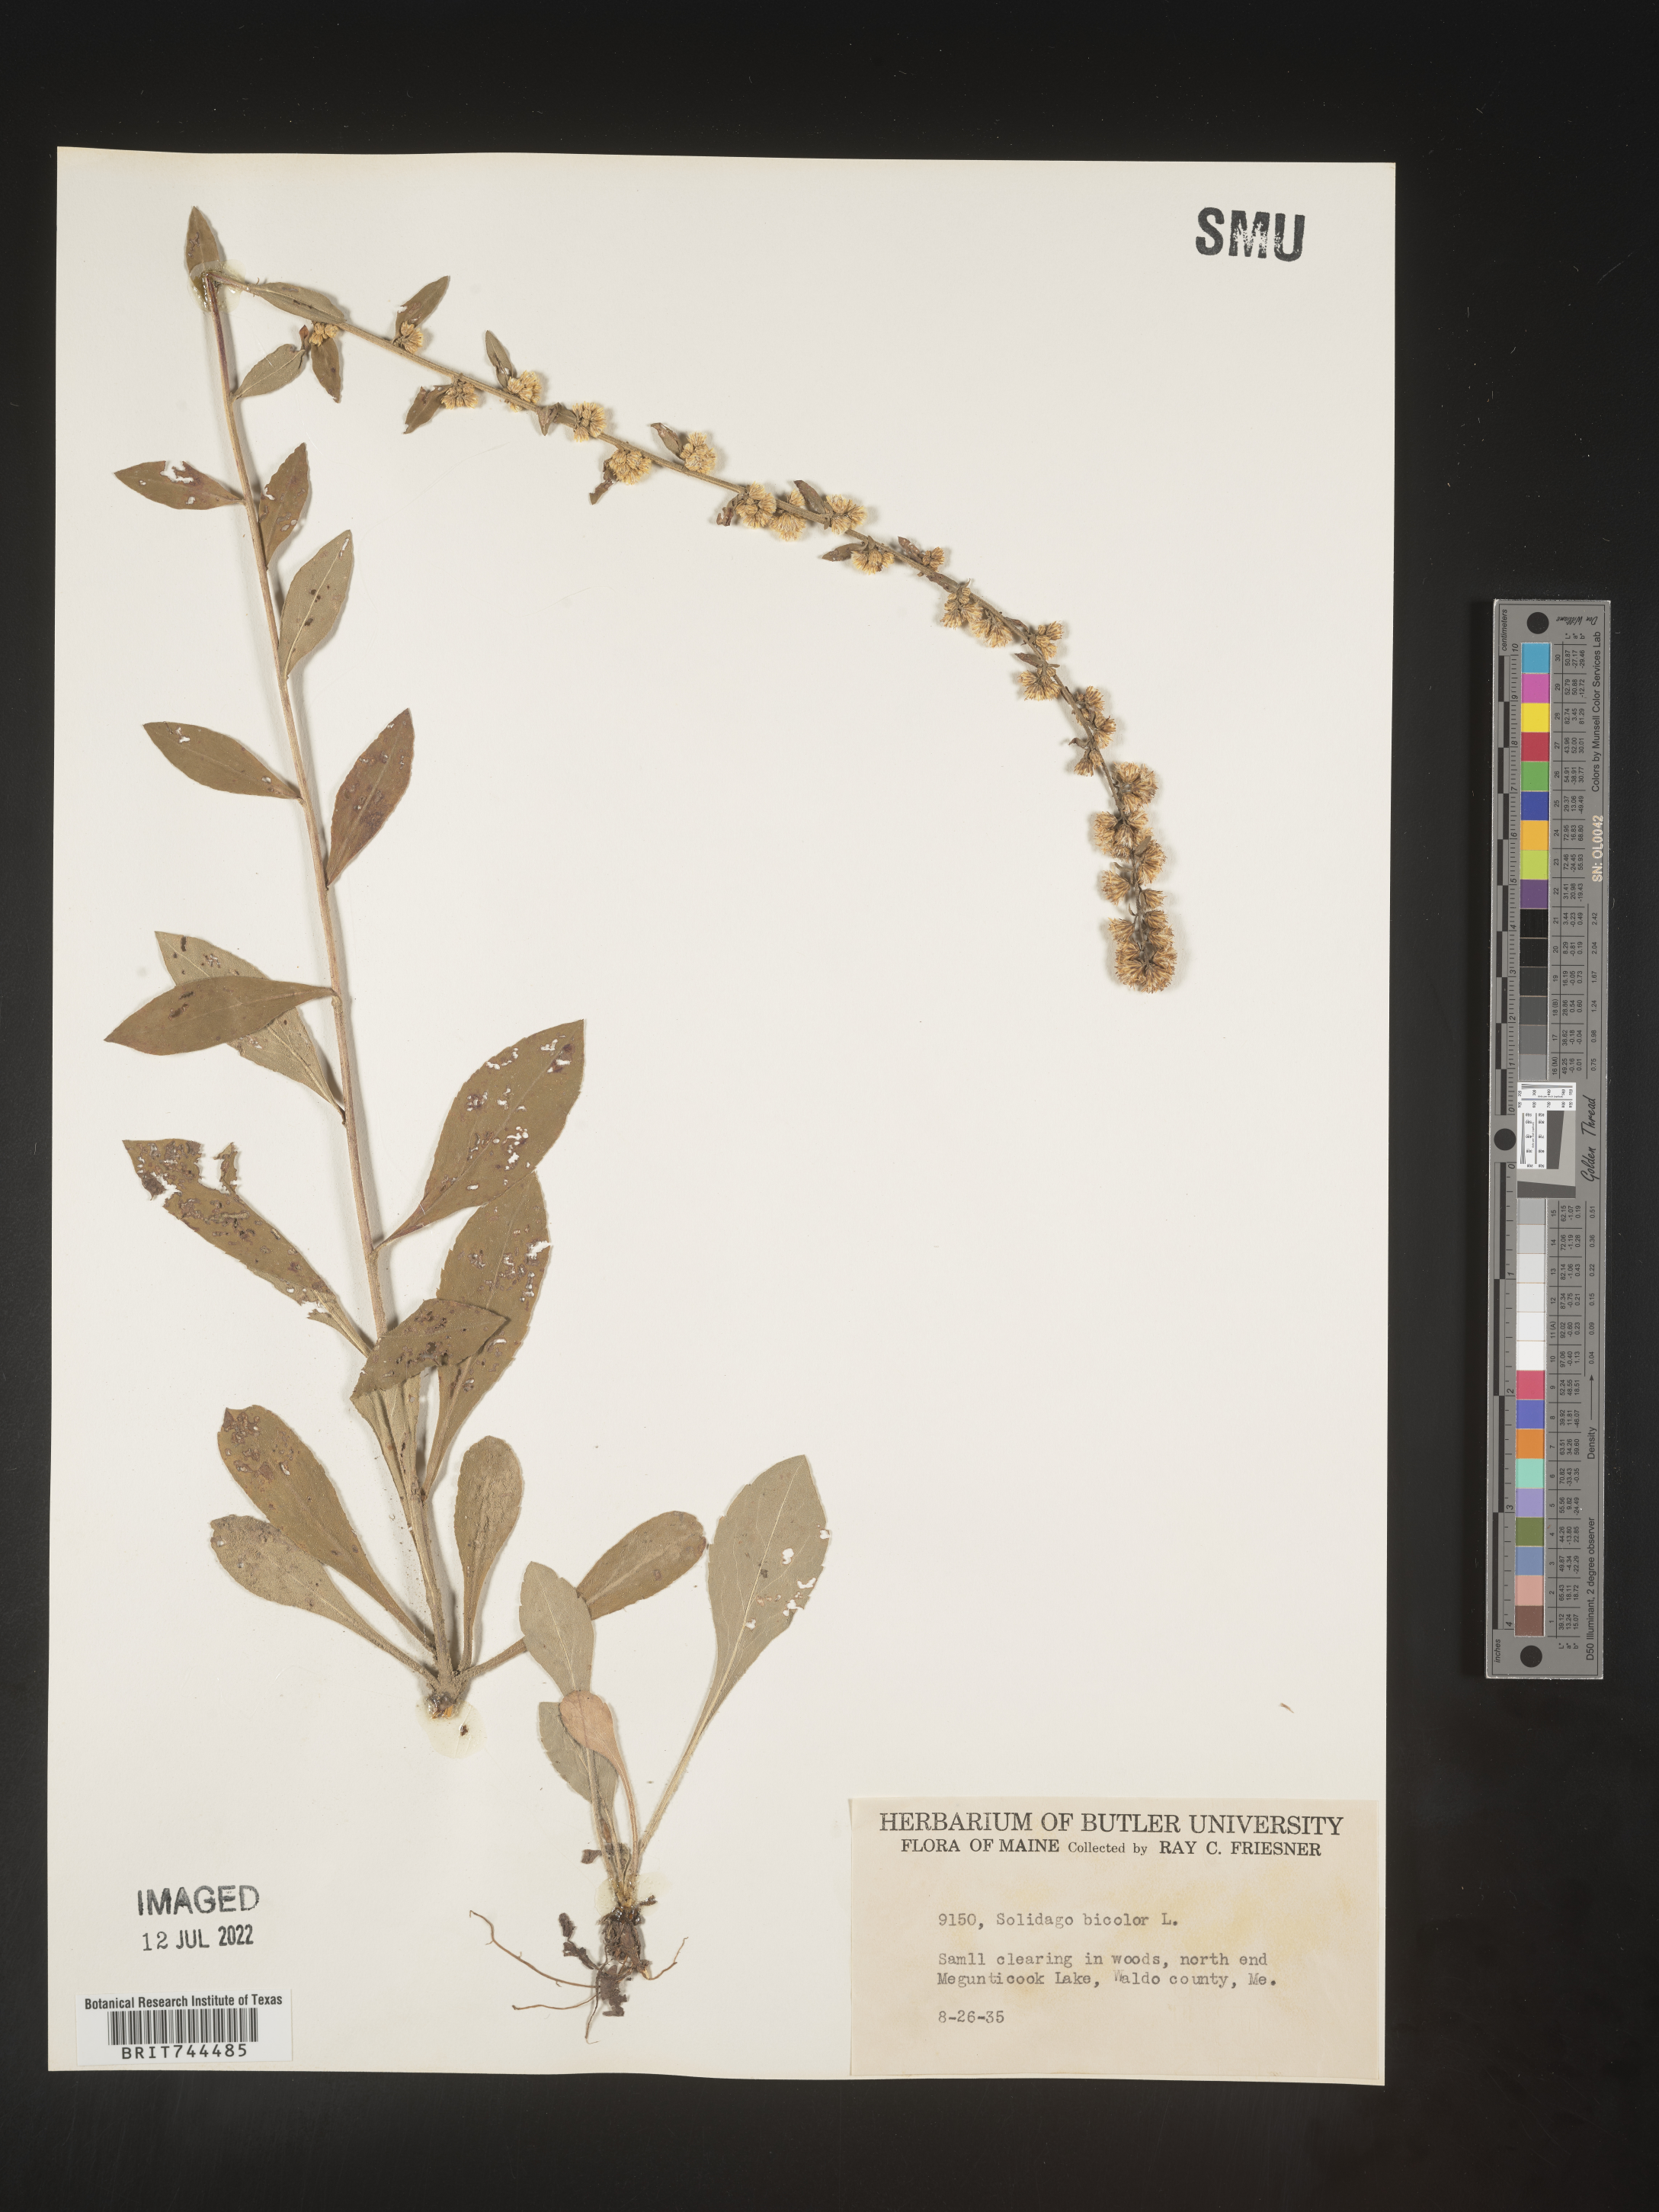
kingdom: Plantae
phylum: Tracheophyta
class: Magnoliopsida
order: Asterales
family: Asteraceae
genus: Solidago
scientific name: Solidago bicolor
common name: Silverrod
